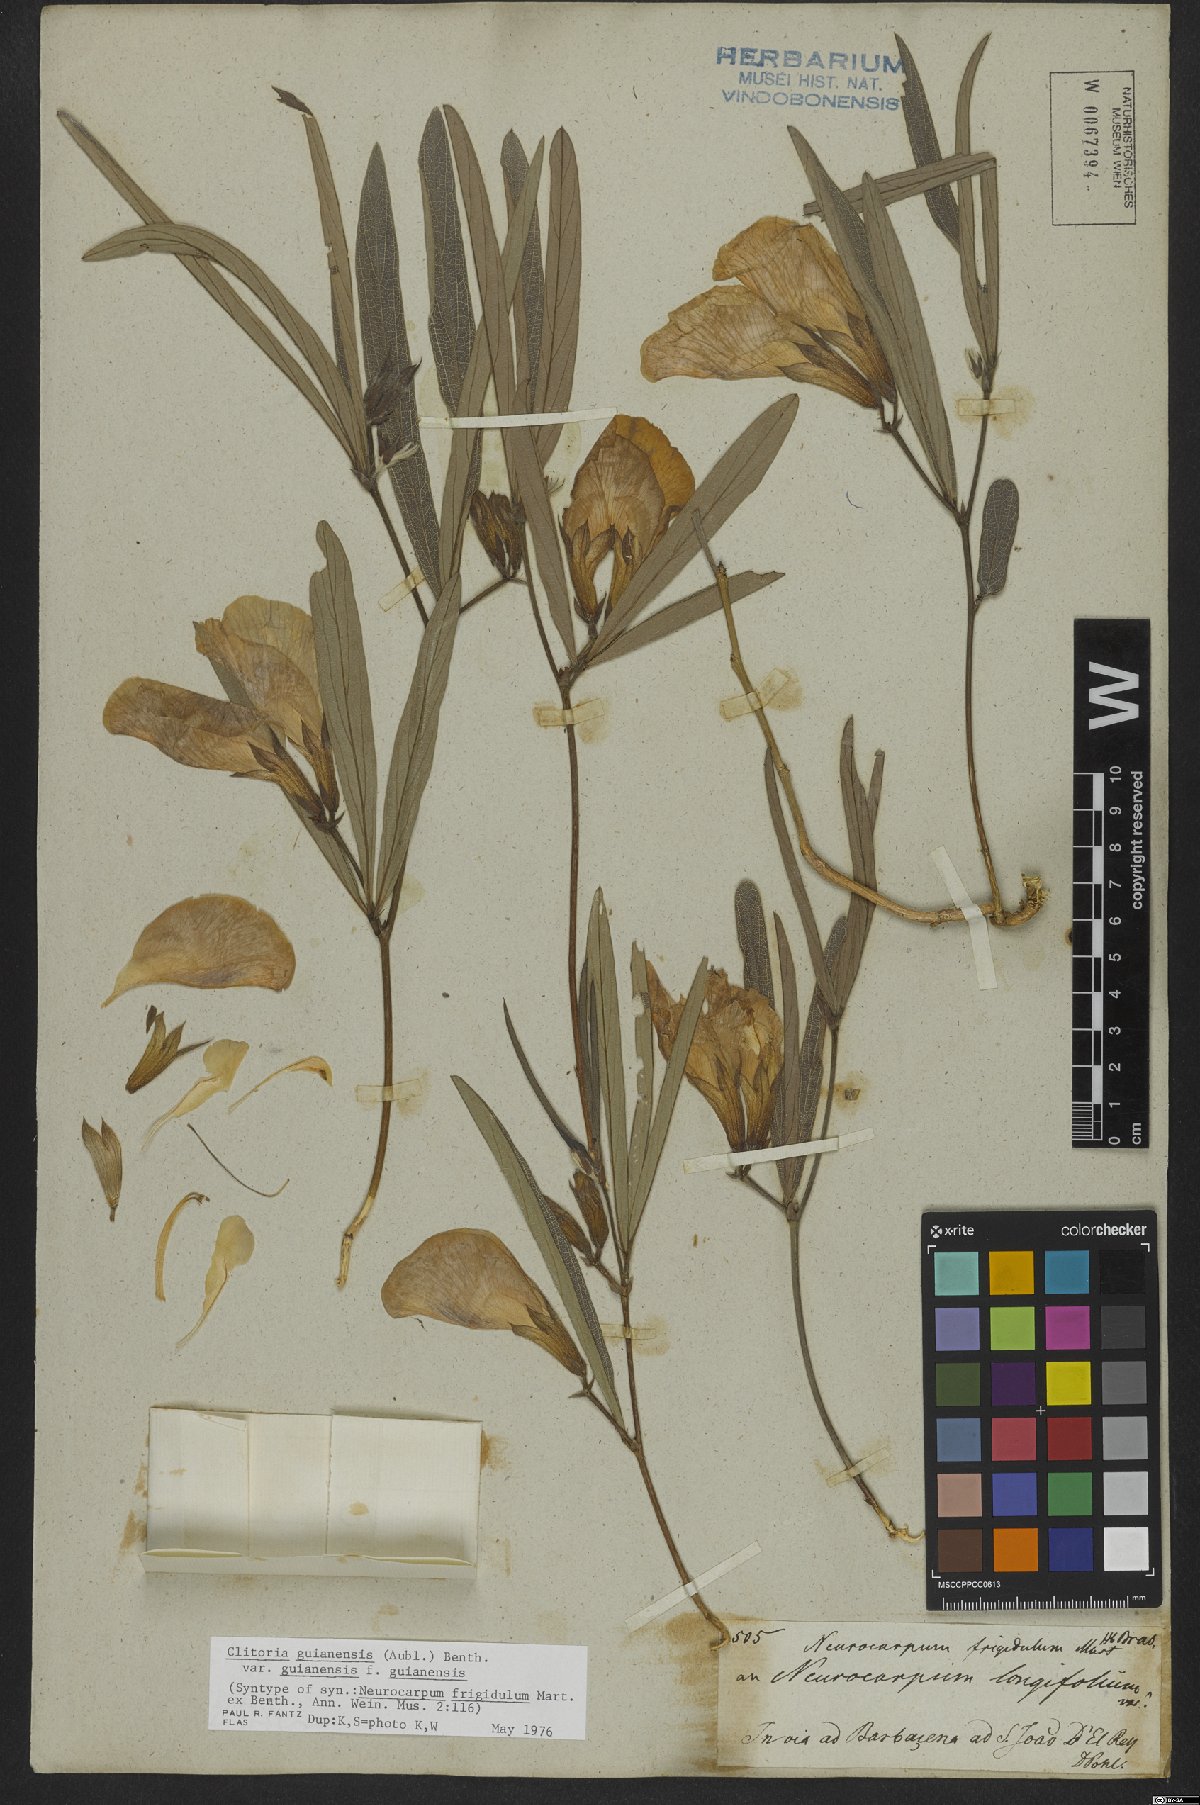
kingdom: Plantae
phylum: Tracheophyta
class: Magnoliopsida
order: Fabales
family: Fabaceae
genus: Clitoria
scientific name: Clitoria guianensis
